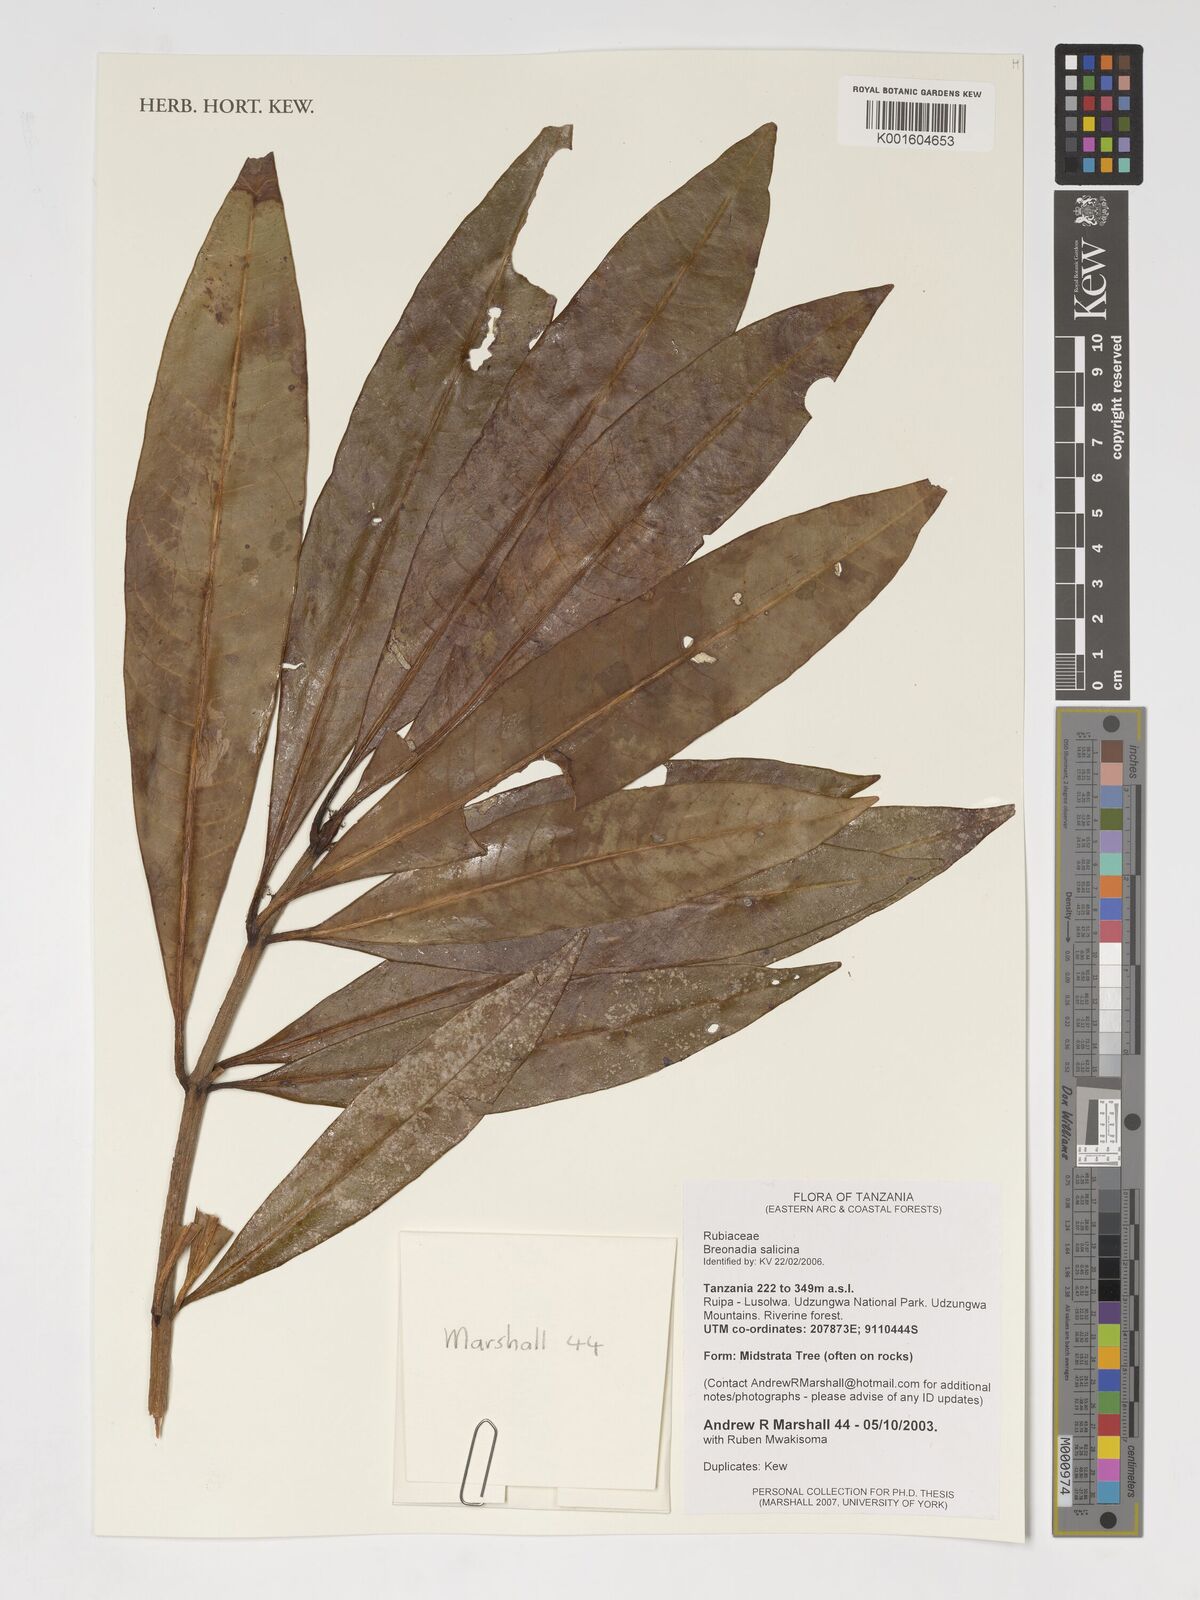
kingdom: Plantae
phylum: Tracheophyta
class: Magnoliopsida
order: Gentianales
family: Rubiaceae
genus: Breonadia
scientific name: Breonadia salicina
